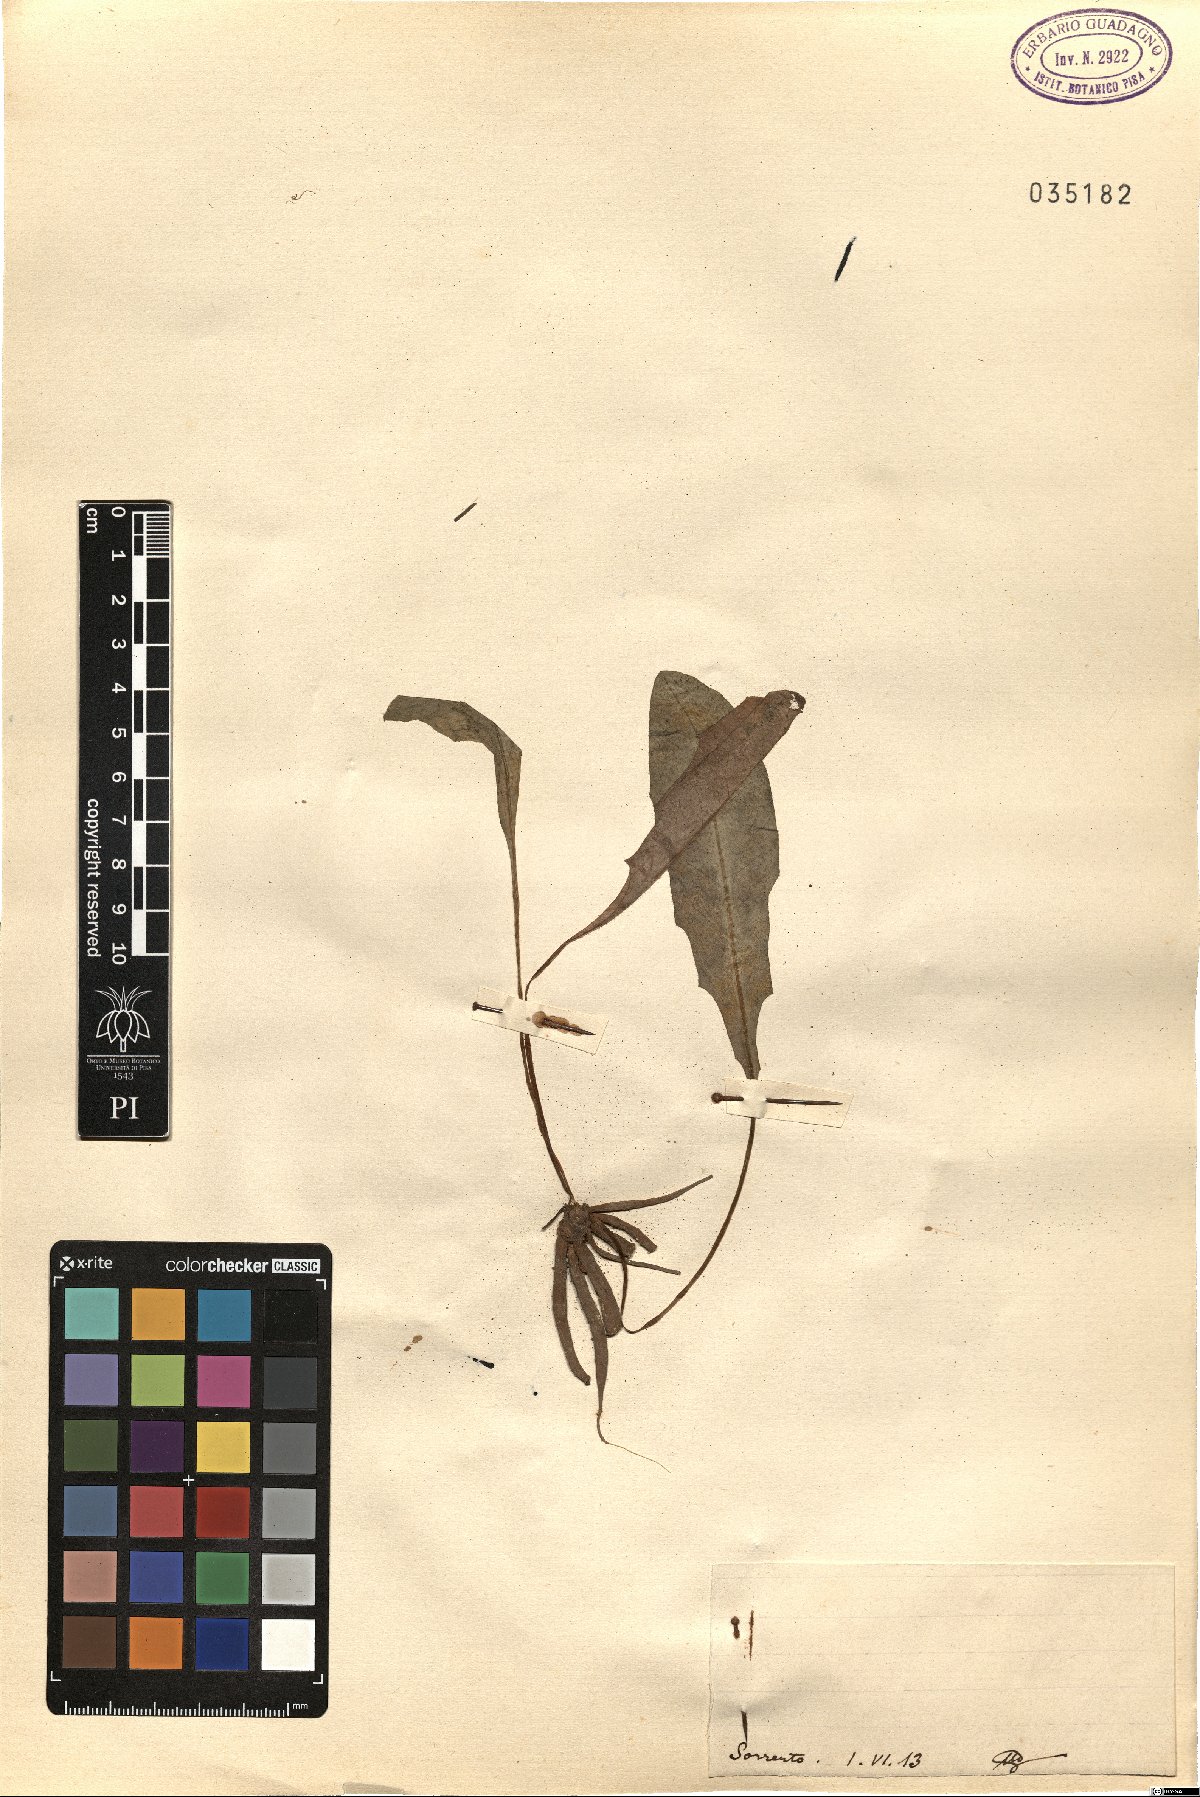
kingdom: Plantae
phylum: Tracheophyta
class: Magnoliopsida
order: Asterales
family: Asteraceae
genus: Thrincia
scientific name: Thrincia
